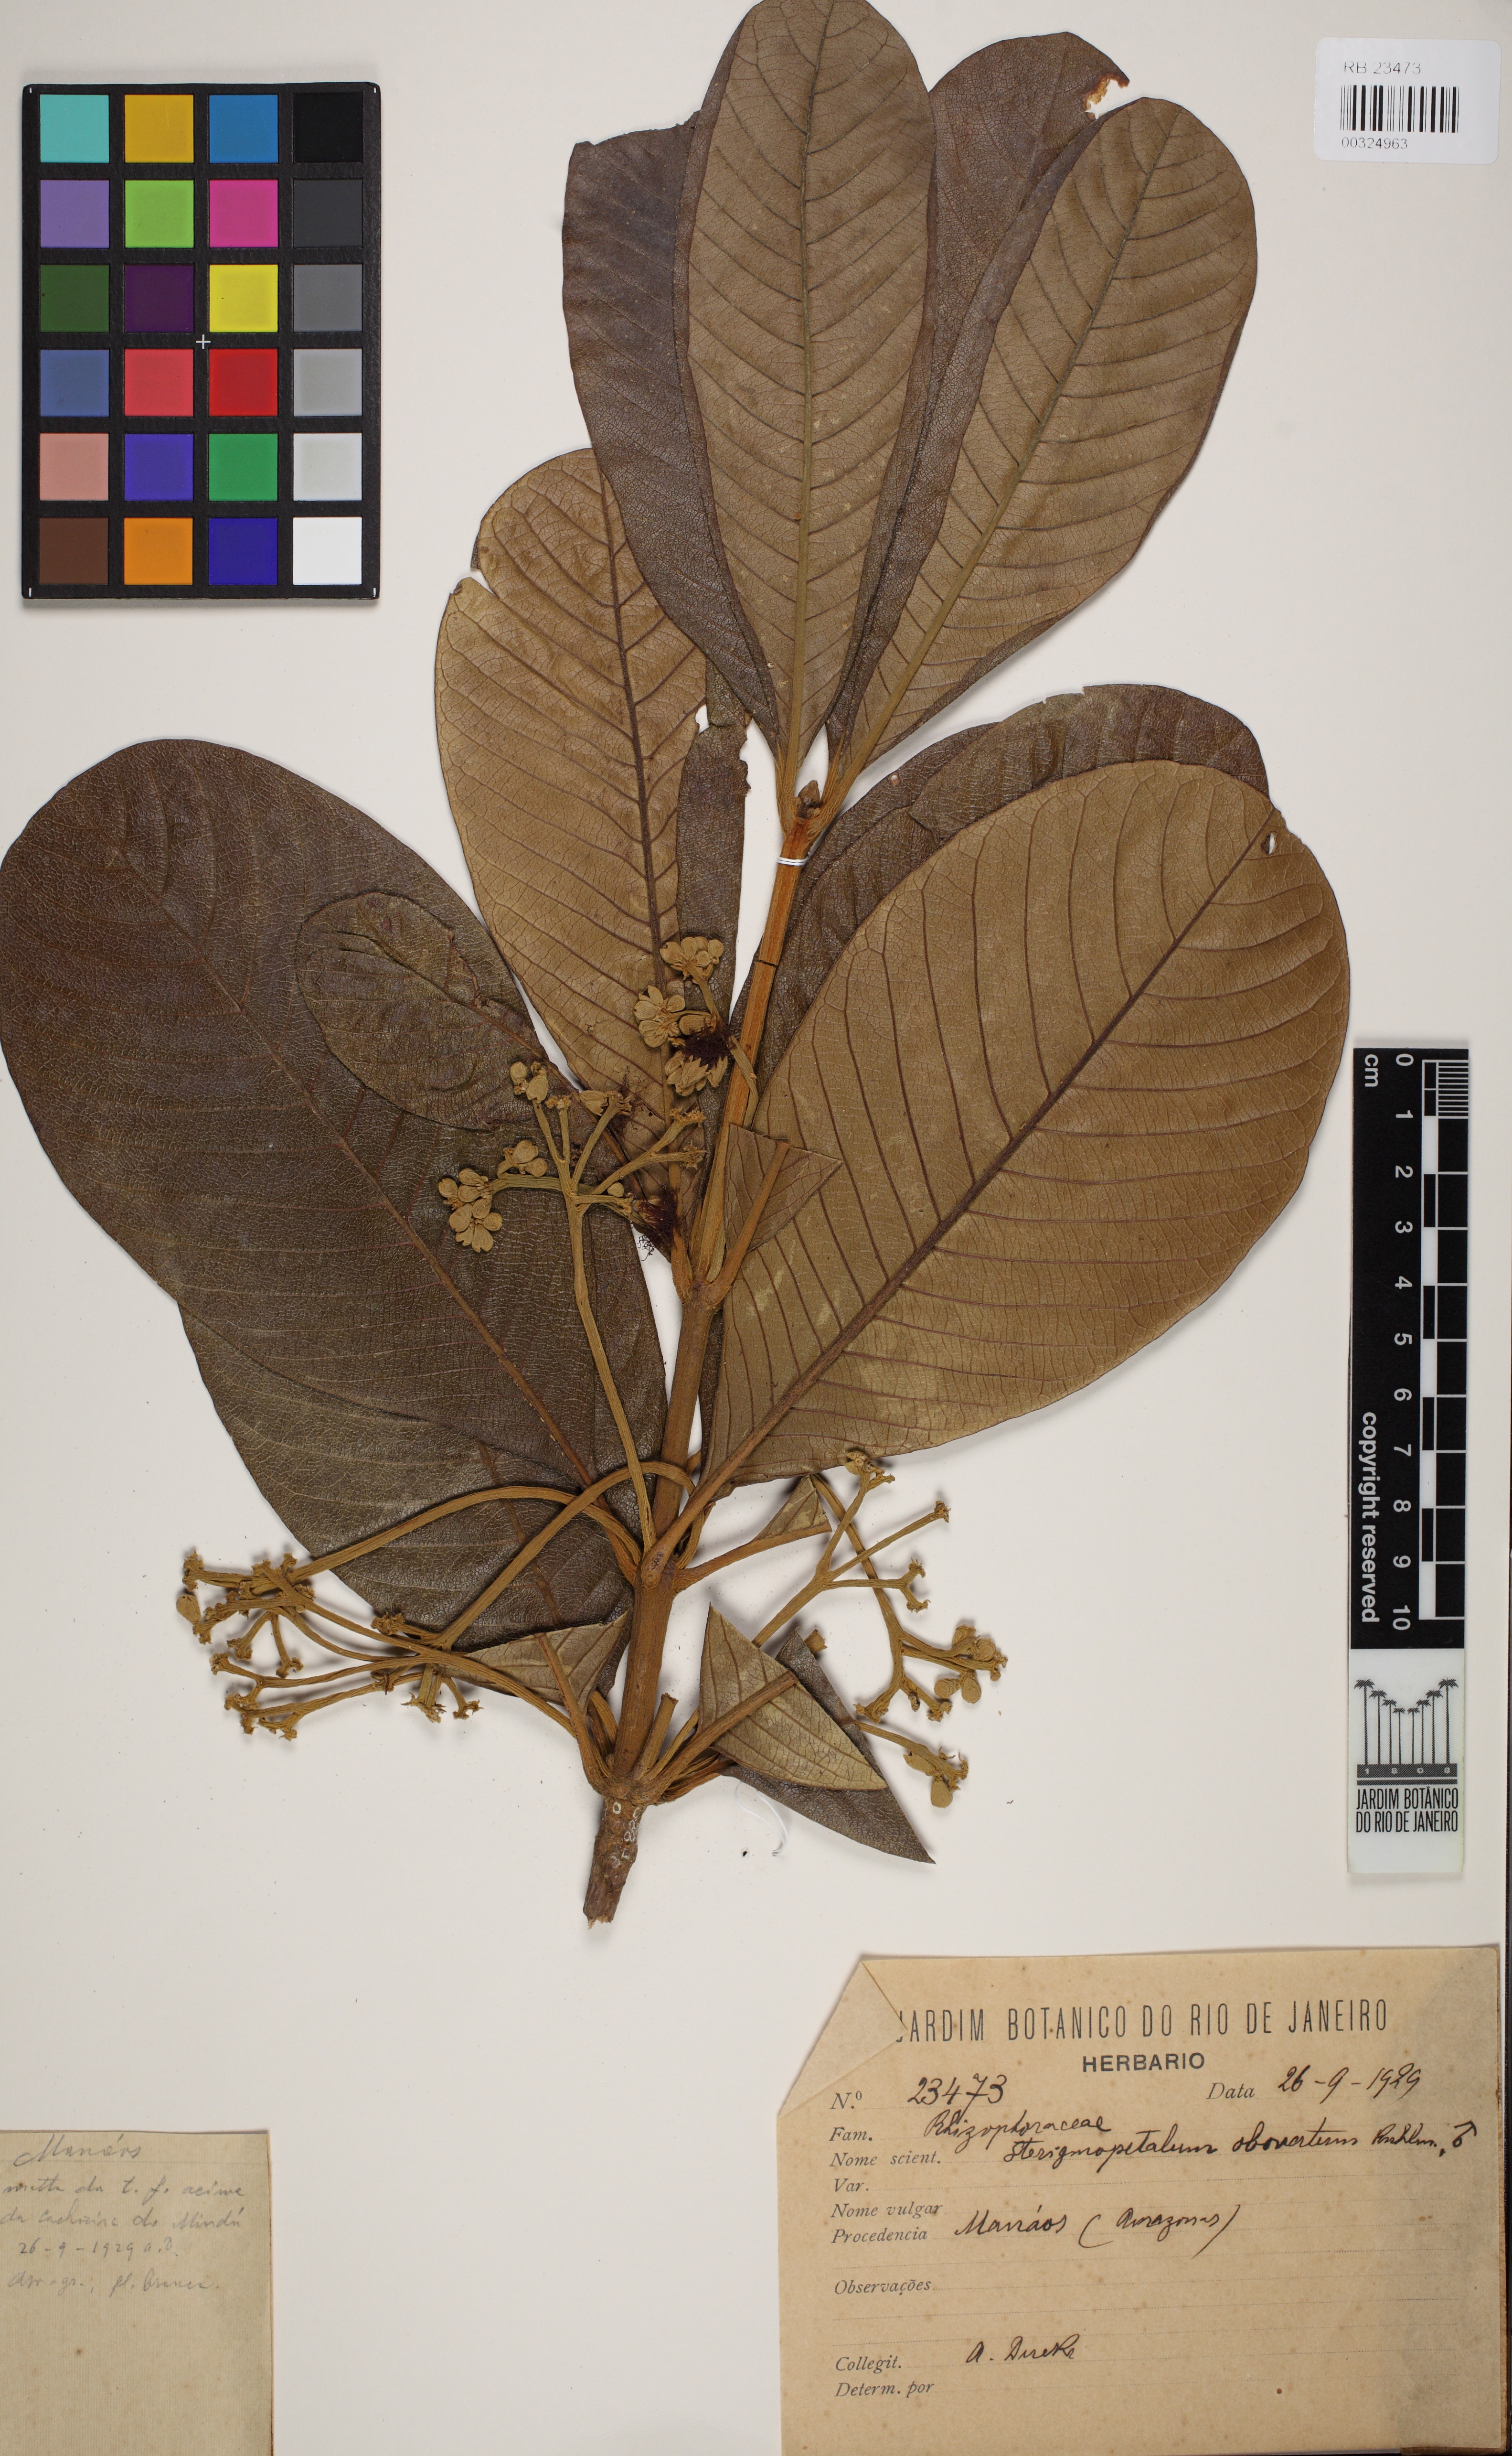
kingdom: Plantae
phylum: Tracheophyta
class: Magnoliopsida
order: Malpighiales
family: Rhizophoraceae
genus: Sterigmapetalum
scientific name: Sterigmapetalum obovatum
